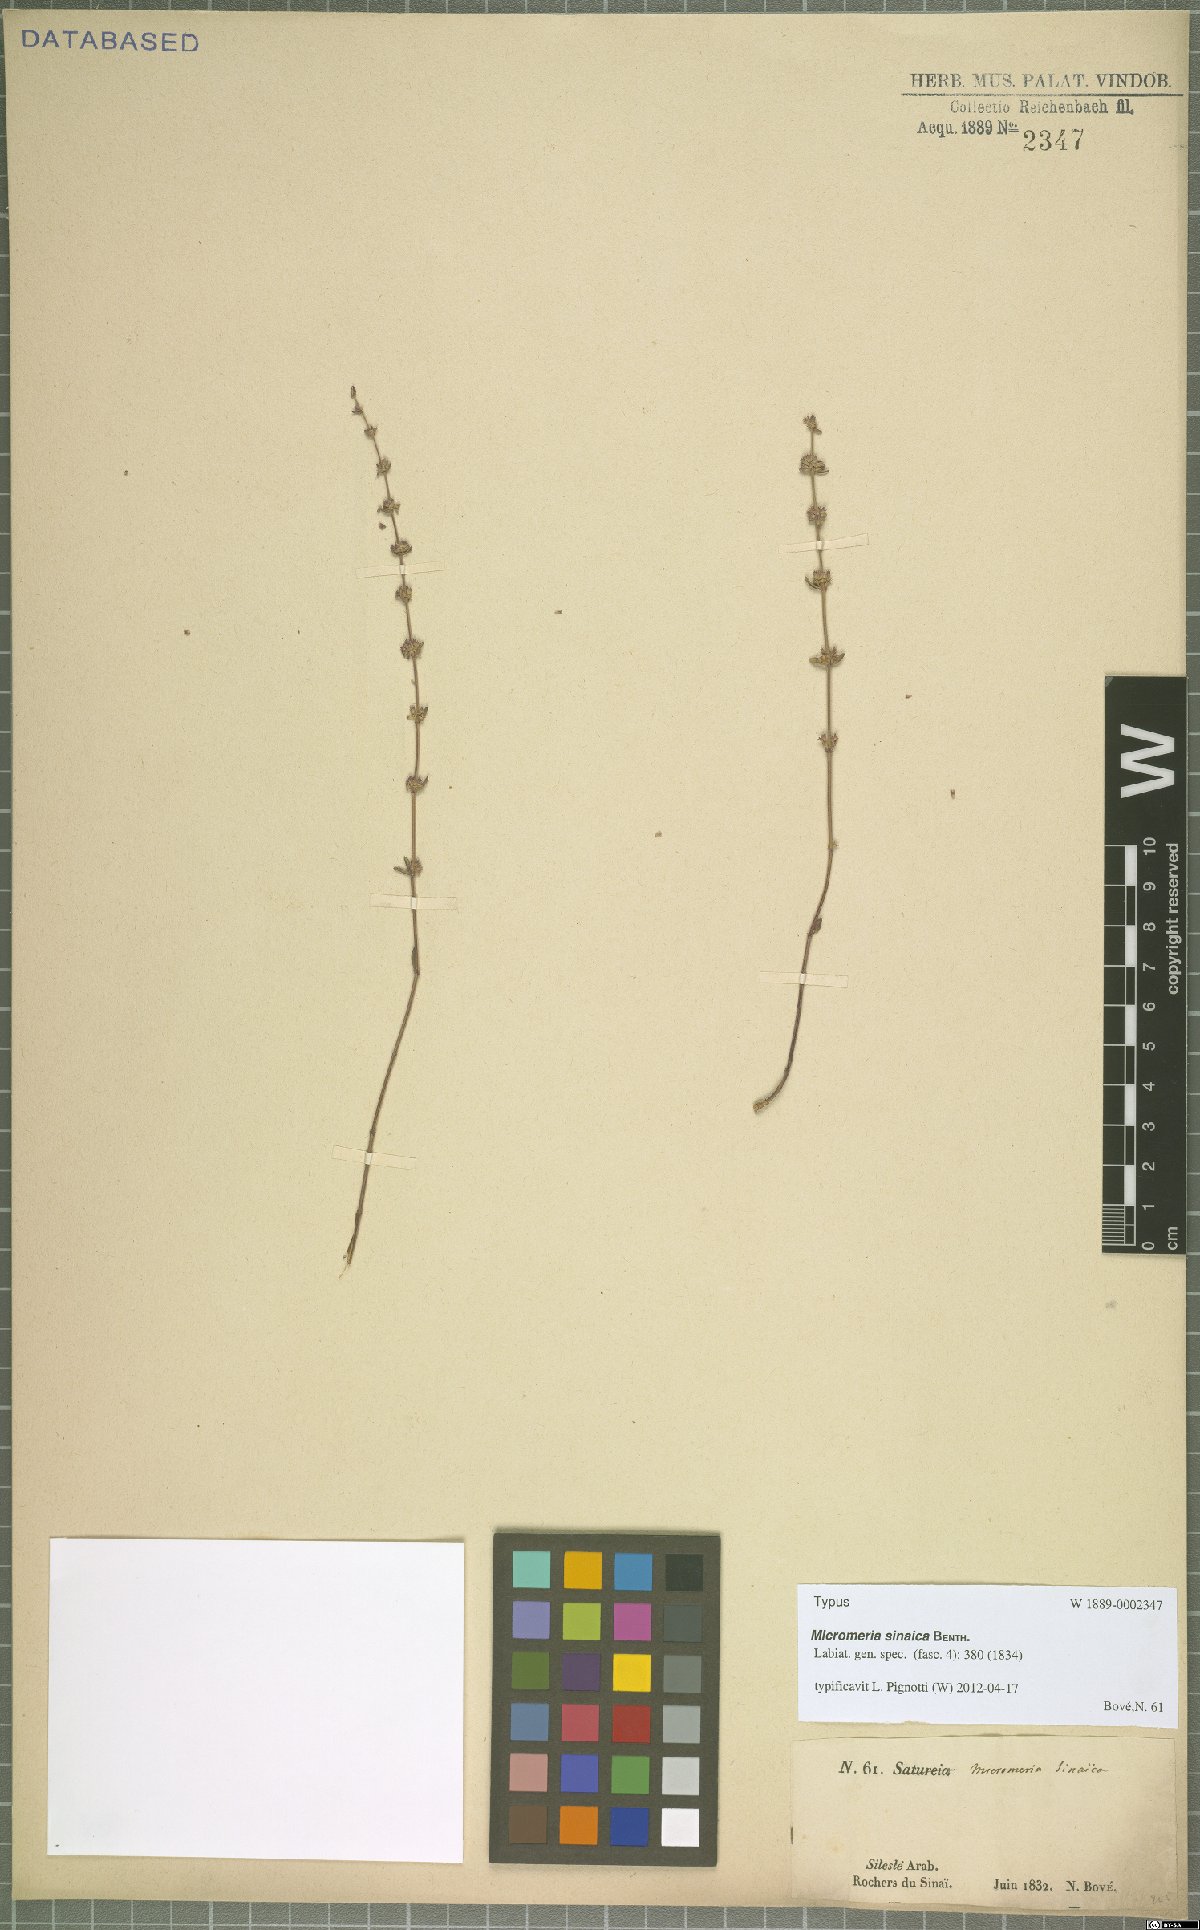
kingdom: Plantae
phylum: Tracheophyta
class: Magnoliopsida
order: Lamiales
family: Lamiaceae
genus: Micromeria
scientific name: Micromeria sinaica
